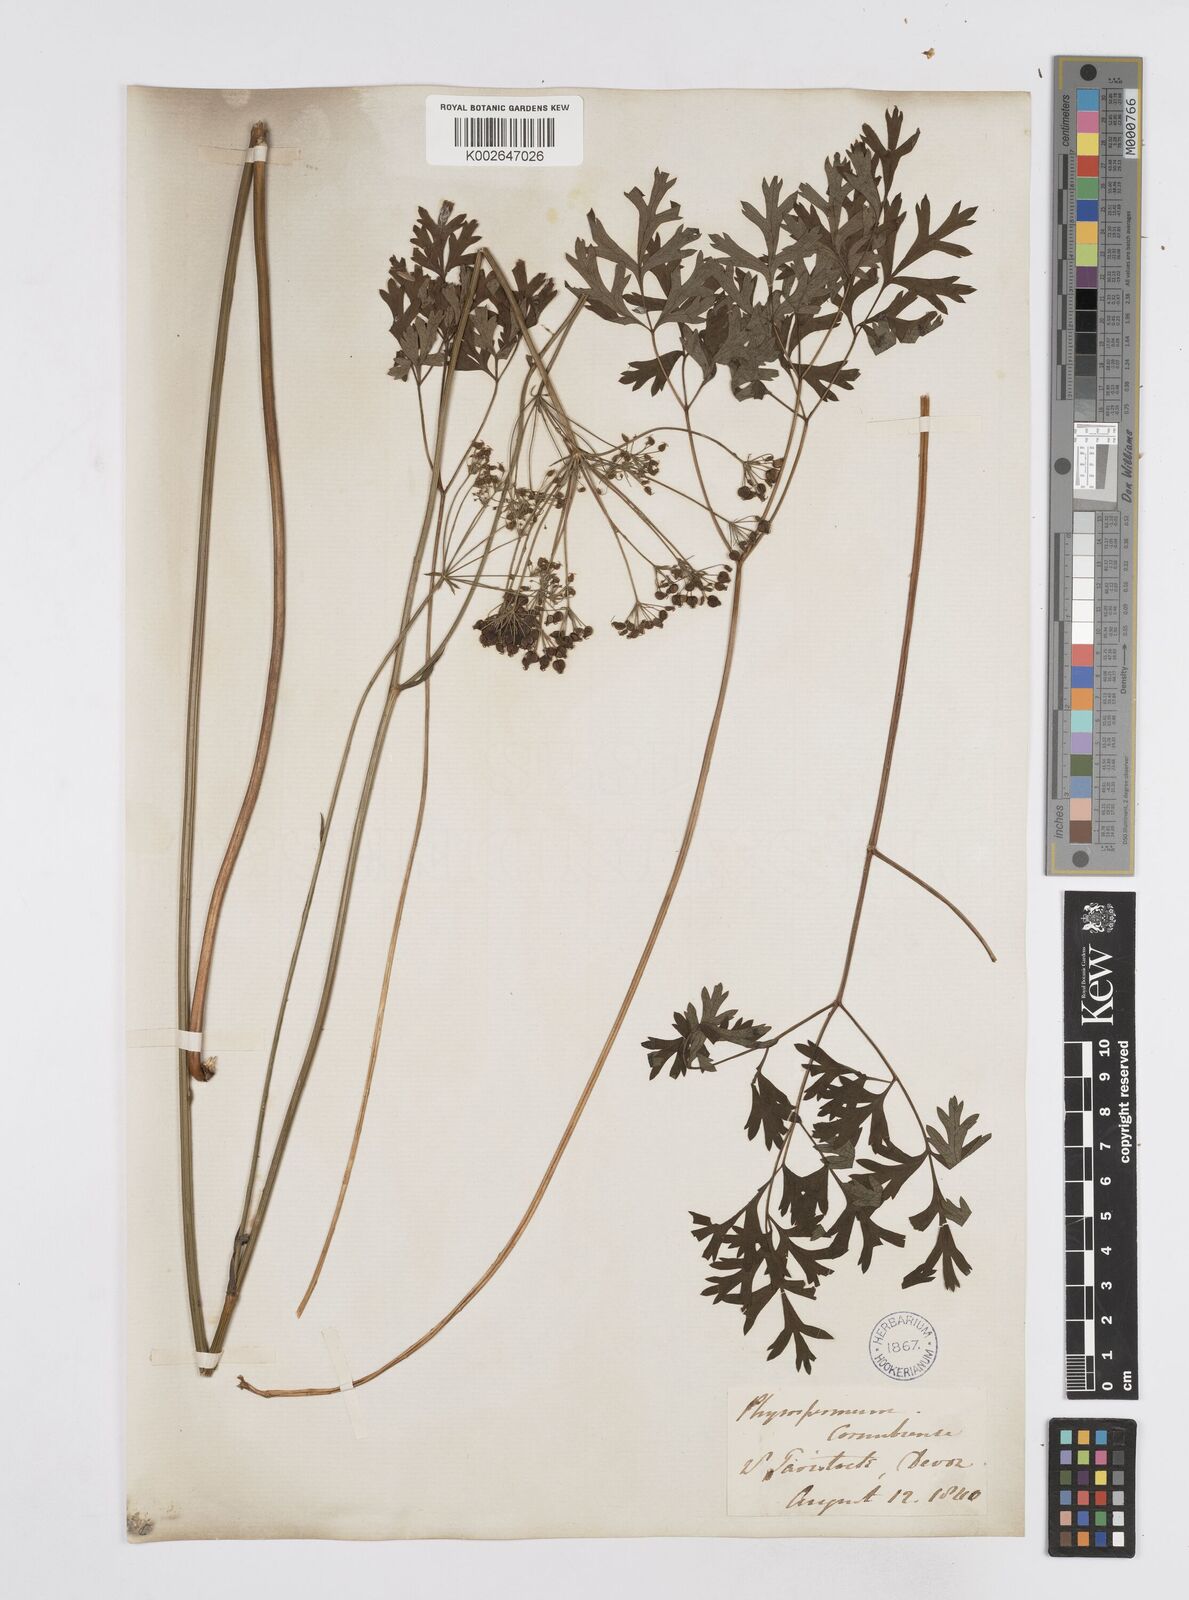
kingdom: Plantae
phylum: Tracheophyta
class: Magnoliopsida
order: Apiales
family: Apiaceae
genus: Physospermum
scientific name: Physospermum cornubiense
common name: Bladderseed
